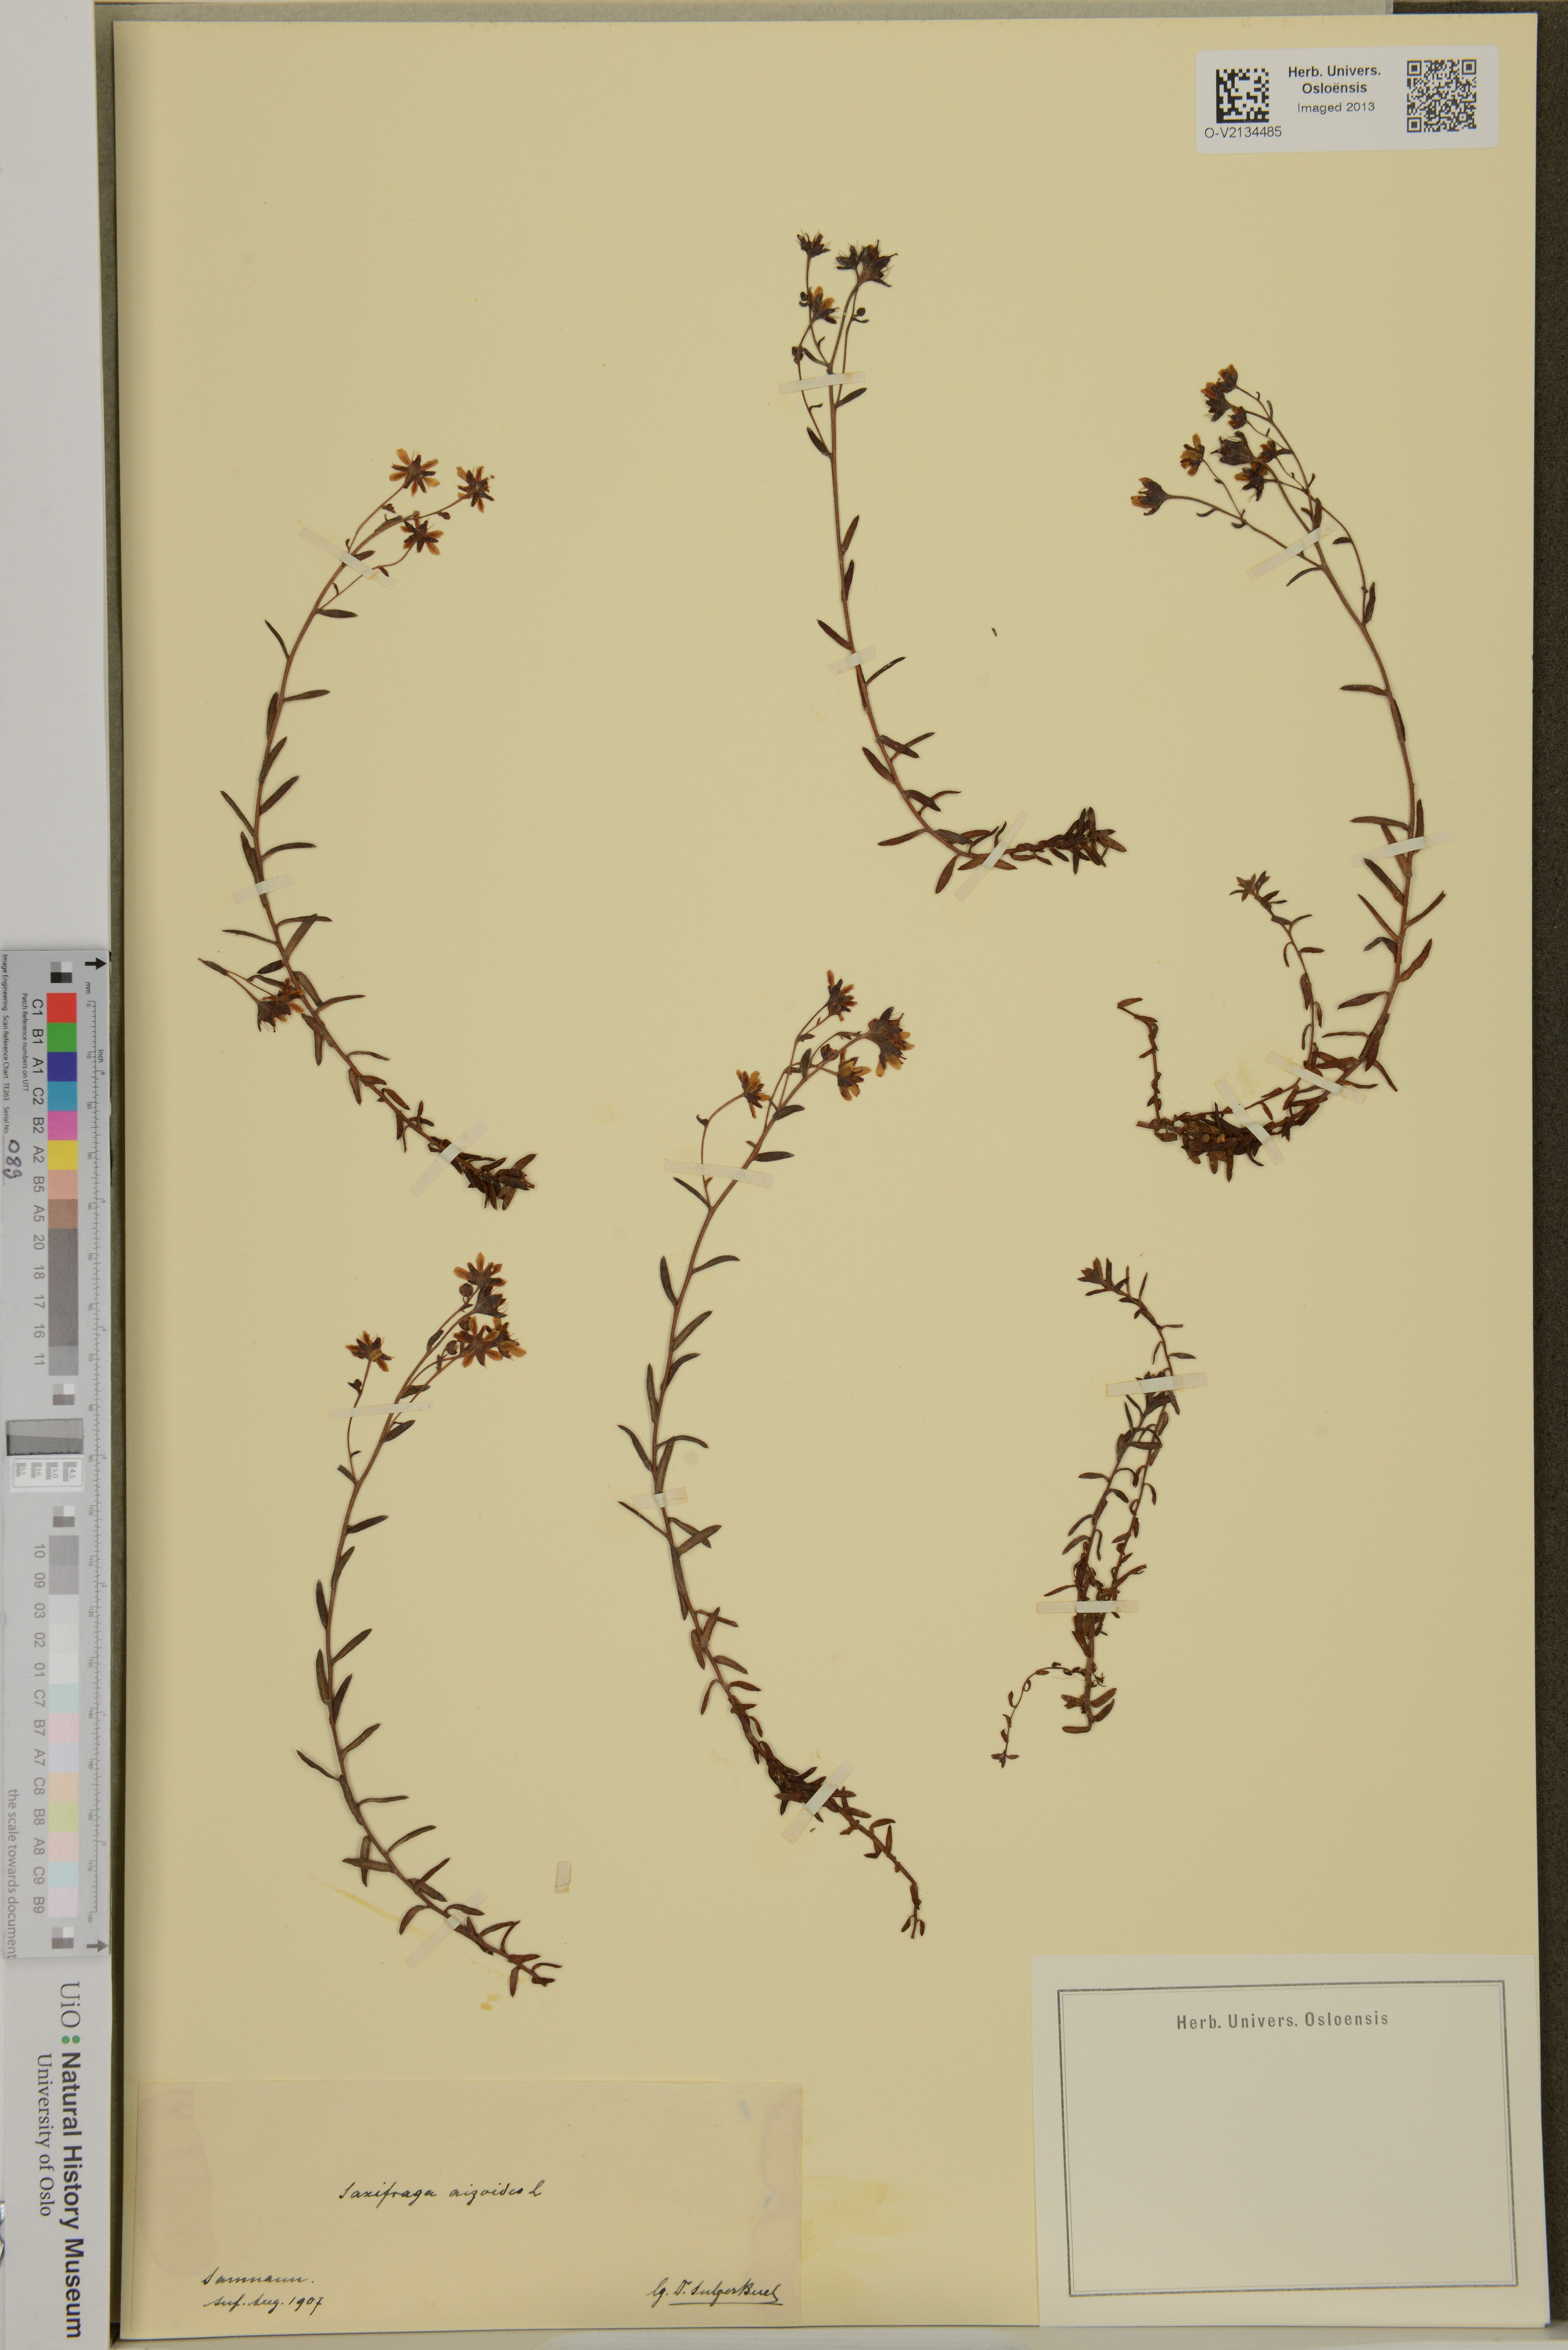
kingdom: Plantae
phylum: Tracheophyta
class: Magnoliopsida
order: Saxifragales
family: Saxifragaceae
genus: Saxifraga
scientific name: Saxifraga aizoides
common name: Yellow mountain saxifrage
